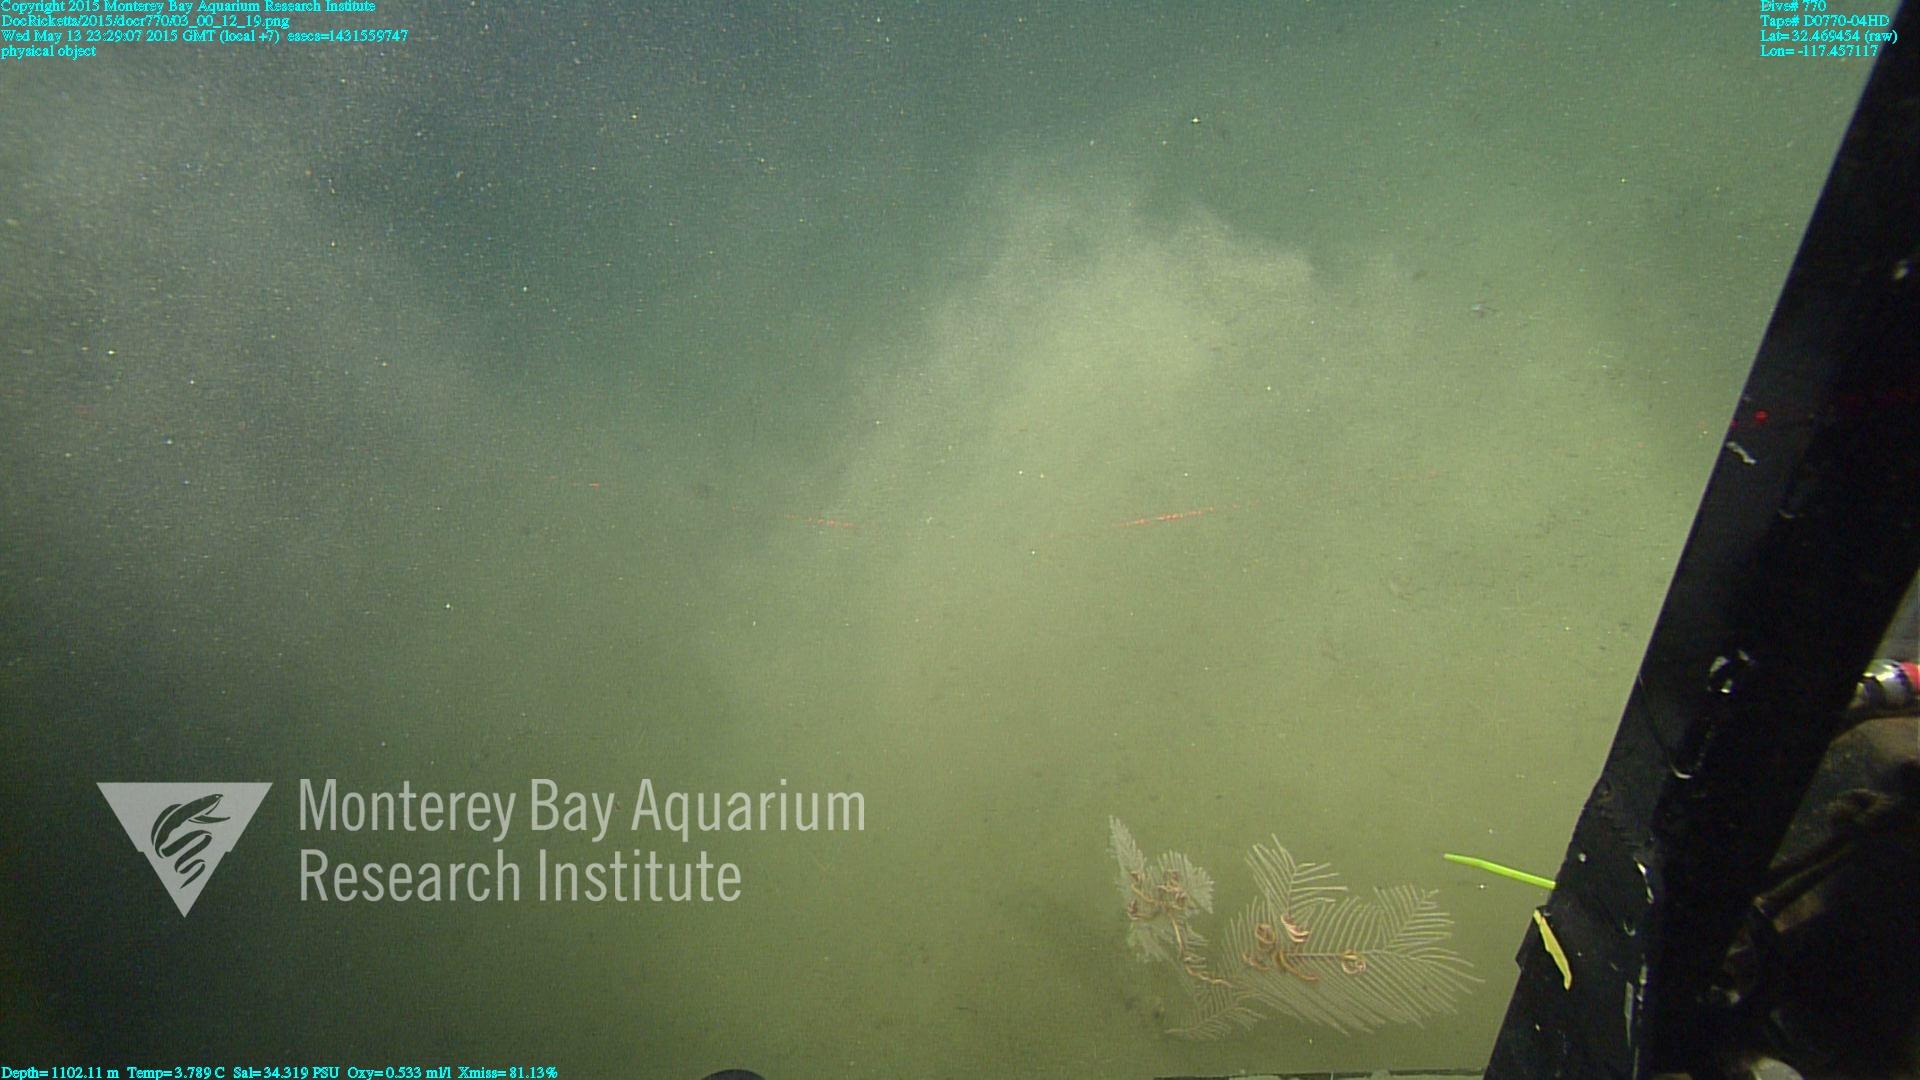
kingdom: Animalia
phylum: Cnidaria
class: Anthozoa
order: Scleralcyonacea
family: Primnoidae
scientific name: Primnoidae
